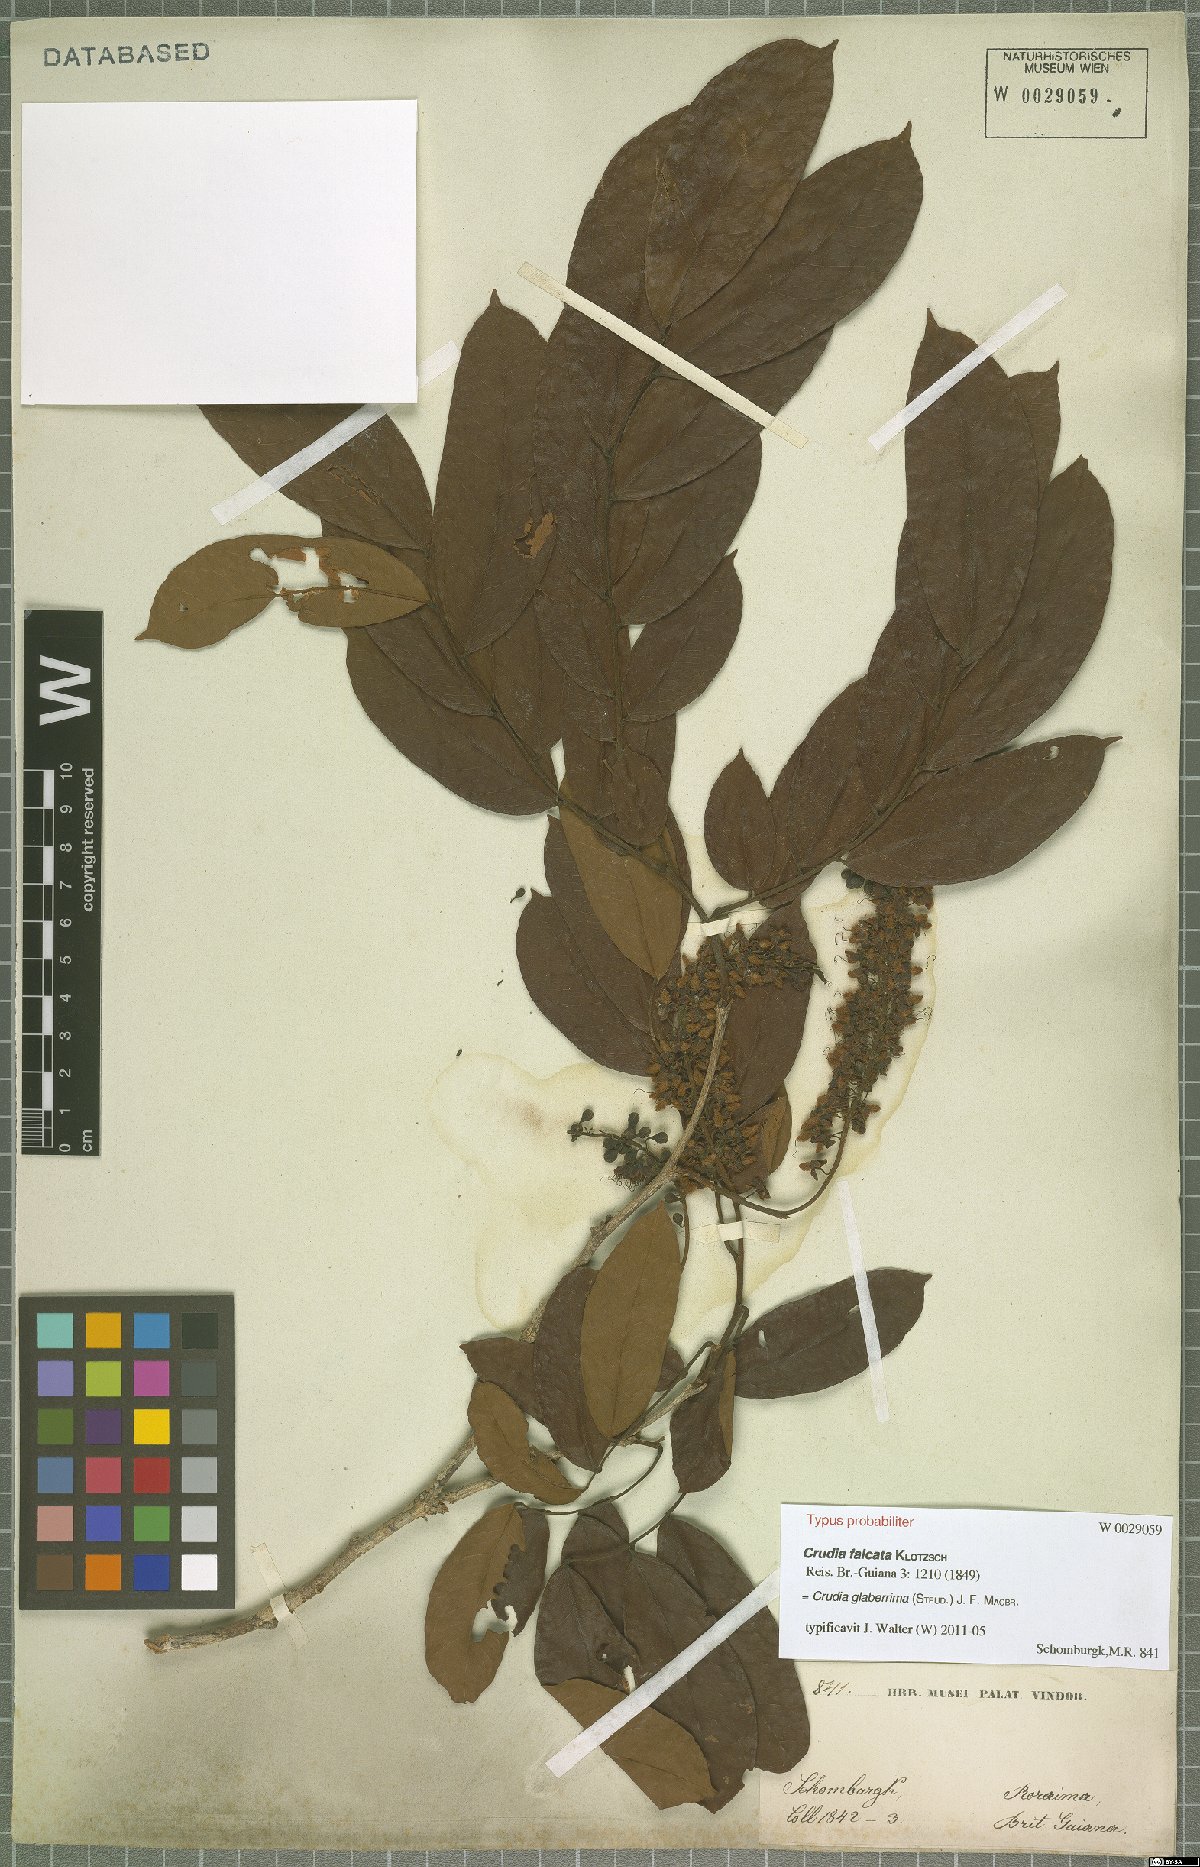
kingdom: Plantae
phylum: Tracheophyta
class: Magnoliopsida
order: Fabales
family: Fabaceae
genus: Crudia
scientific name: Crudia glaberrima
